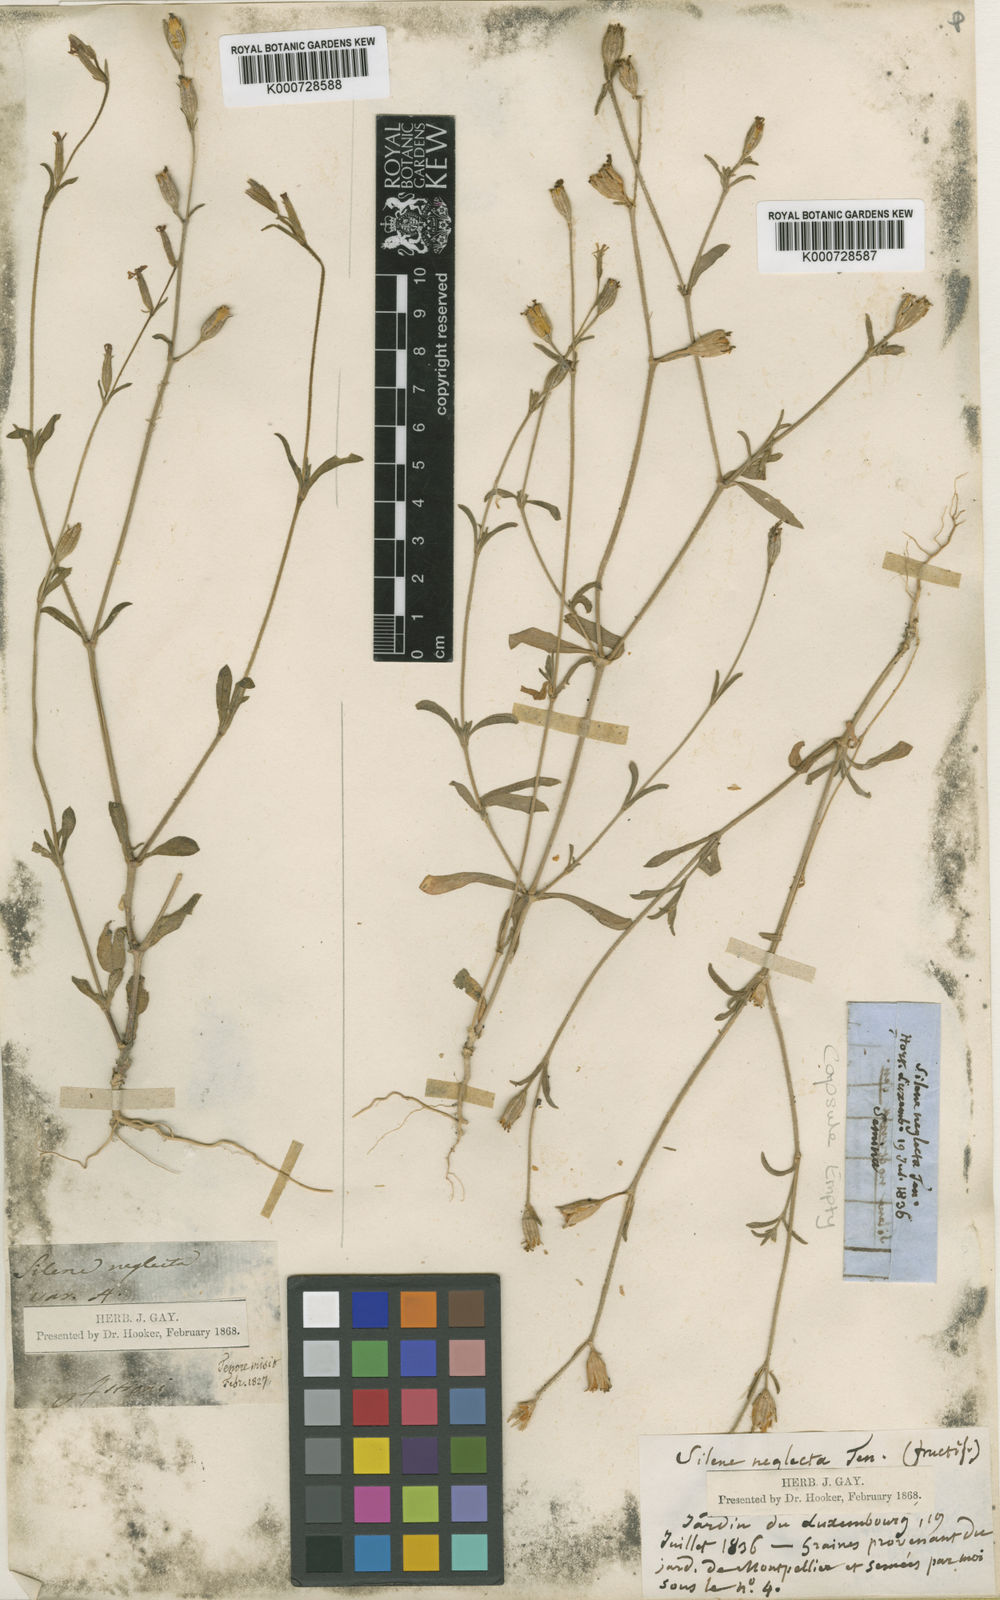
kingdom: Plantae
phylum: Tracheophyta
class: Magnoliopsida
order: Caryophyllales
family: Caryophyllaceae
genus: Silene
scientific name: Silene nocturna
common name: Mediterranean catchfly
